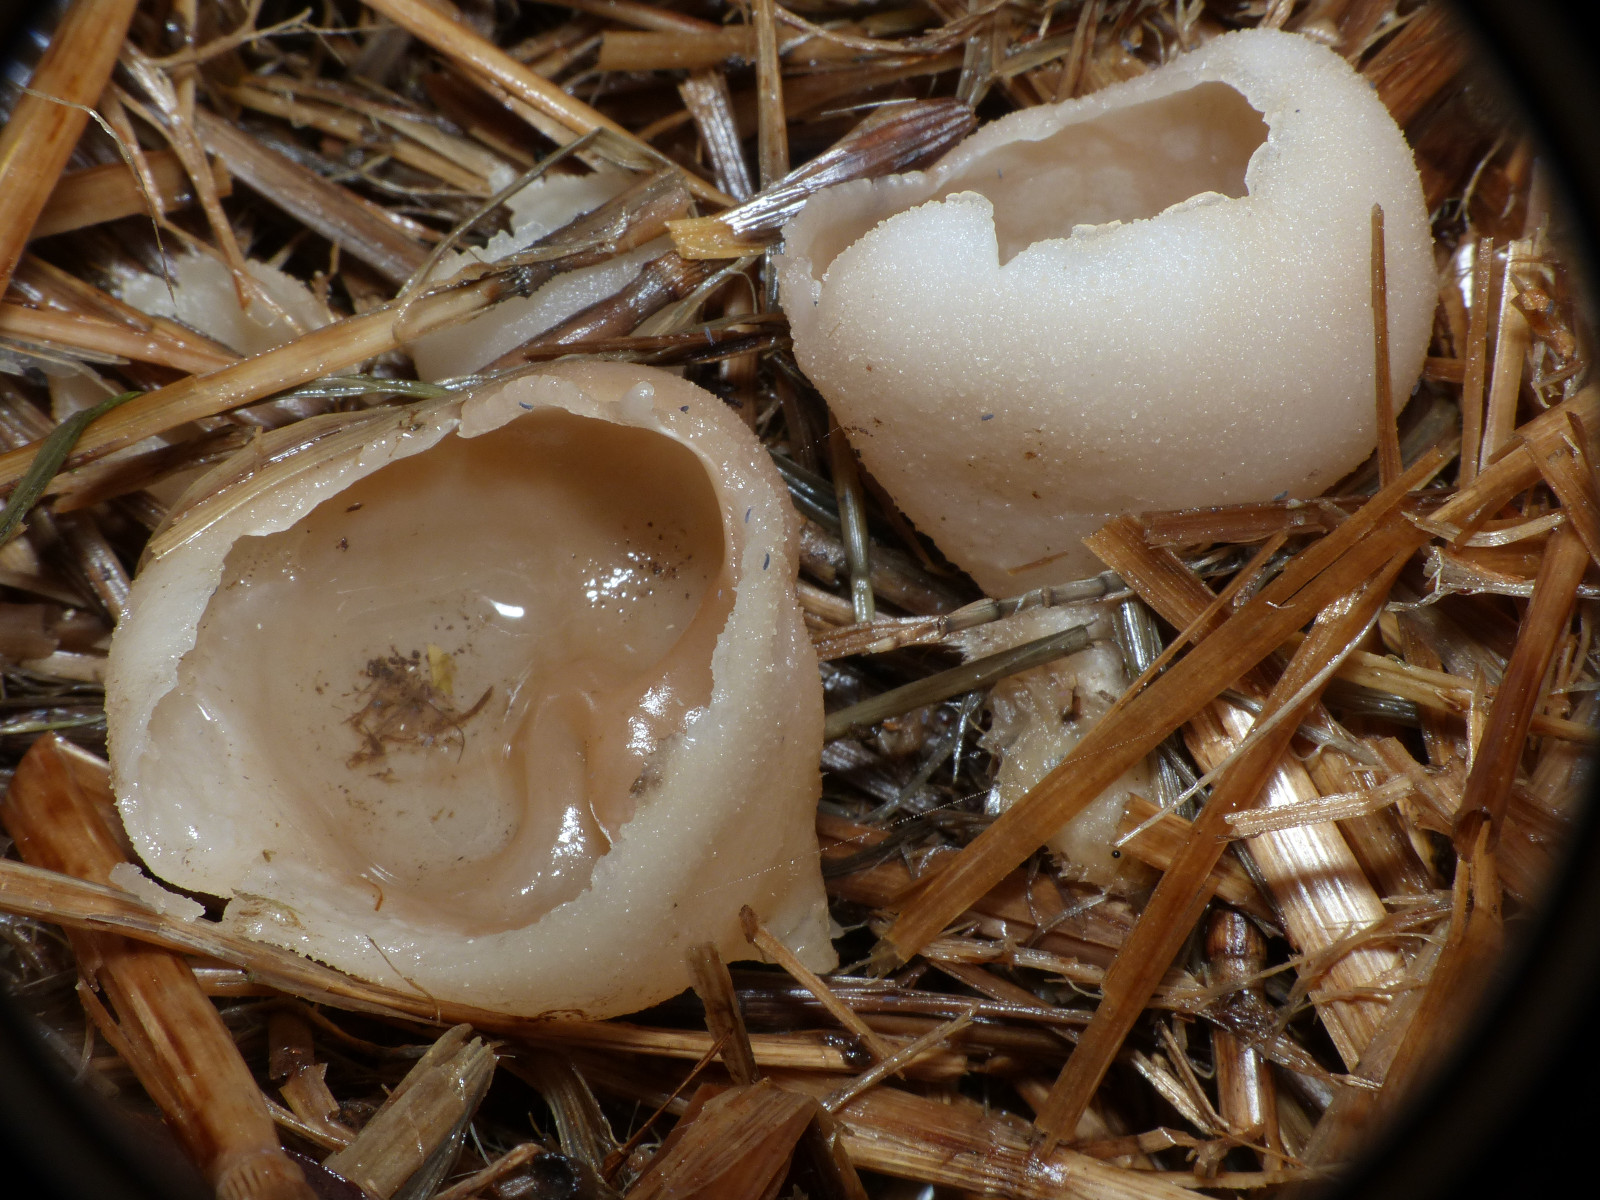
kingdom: Fungi
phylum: Ascomycota
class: Pezizomycetes
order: Pezizales
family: Pezizaceae
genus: Peziza
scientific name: Peziza vesiculosa
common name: blære-bægersvamp
